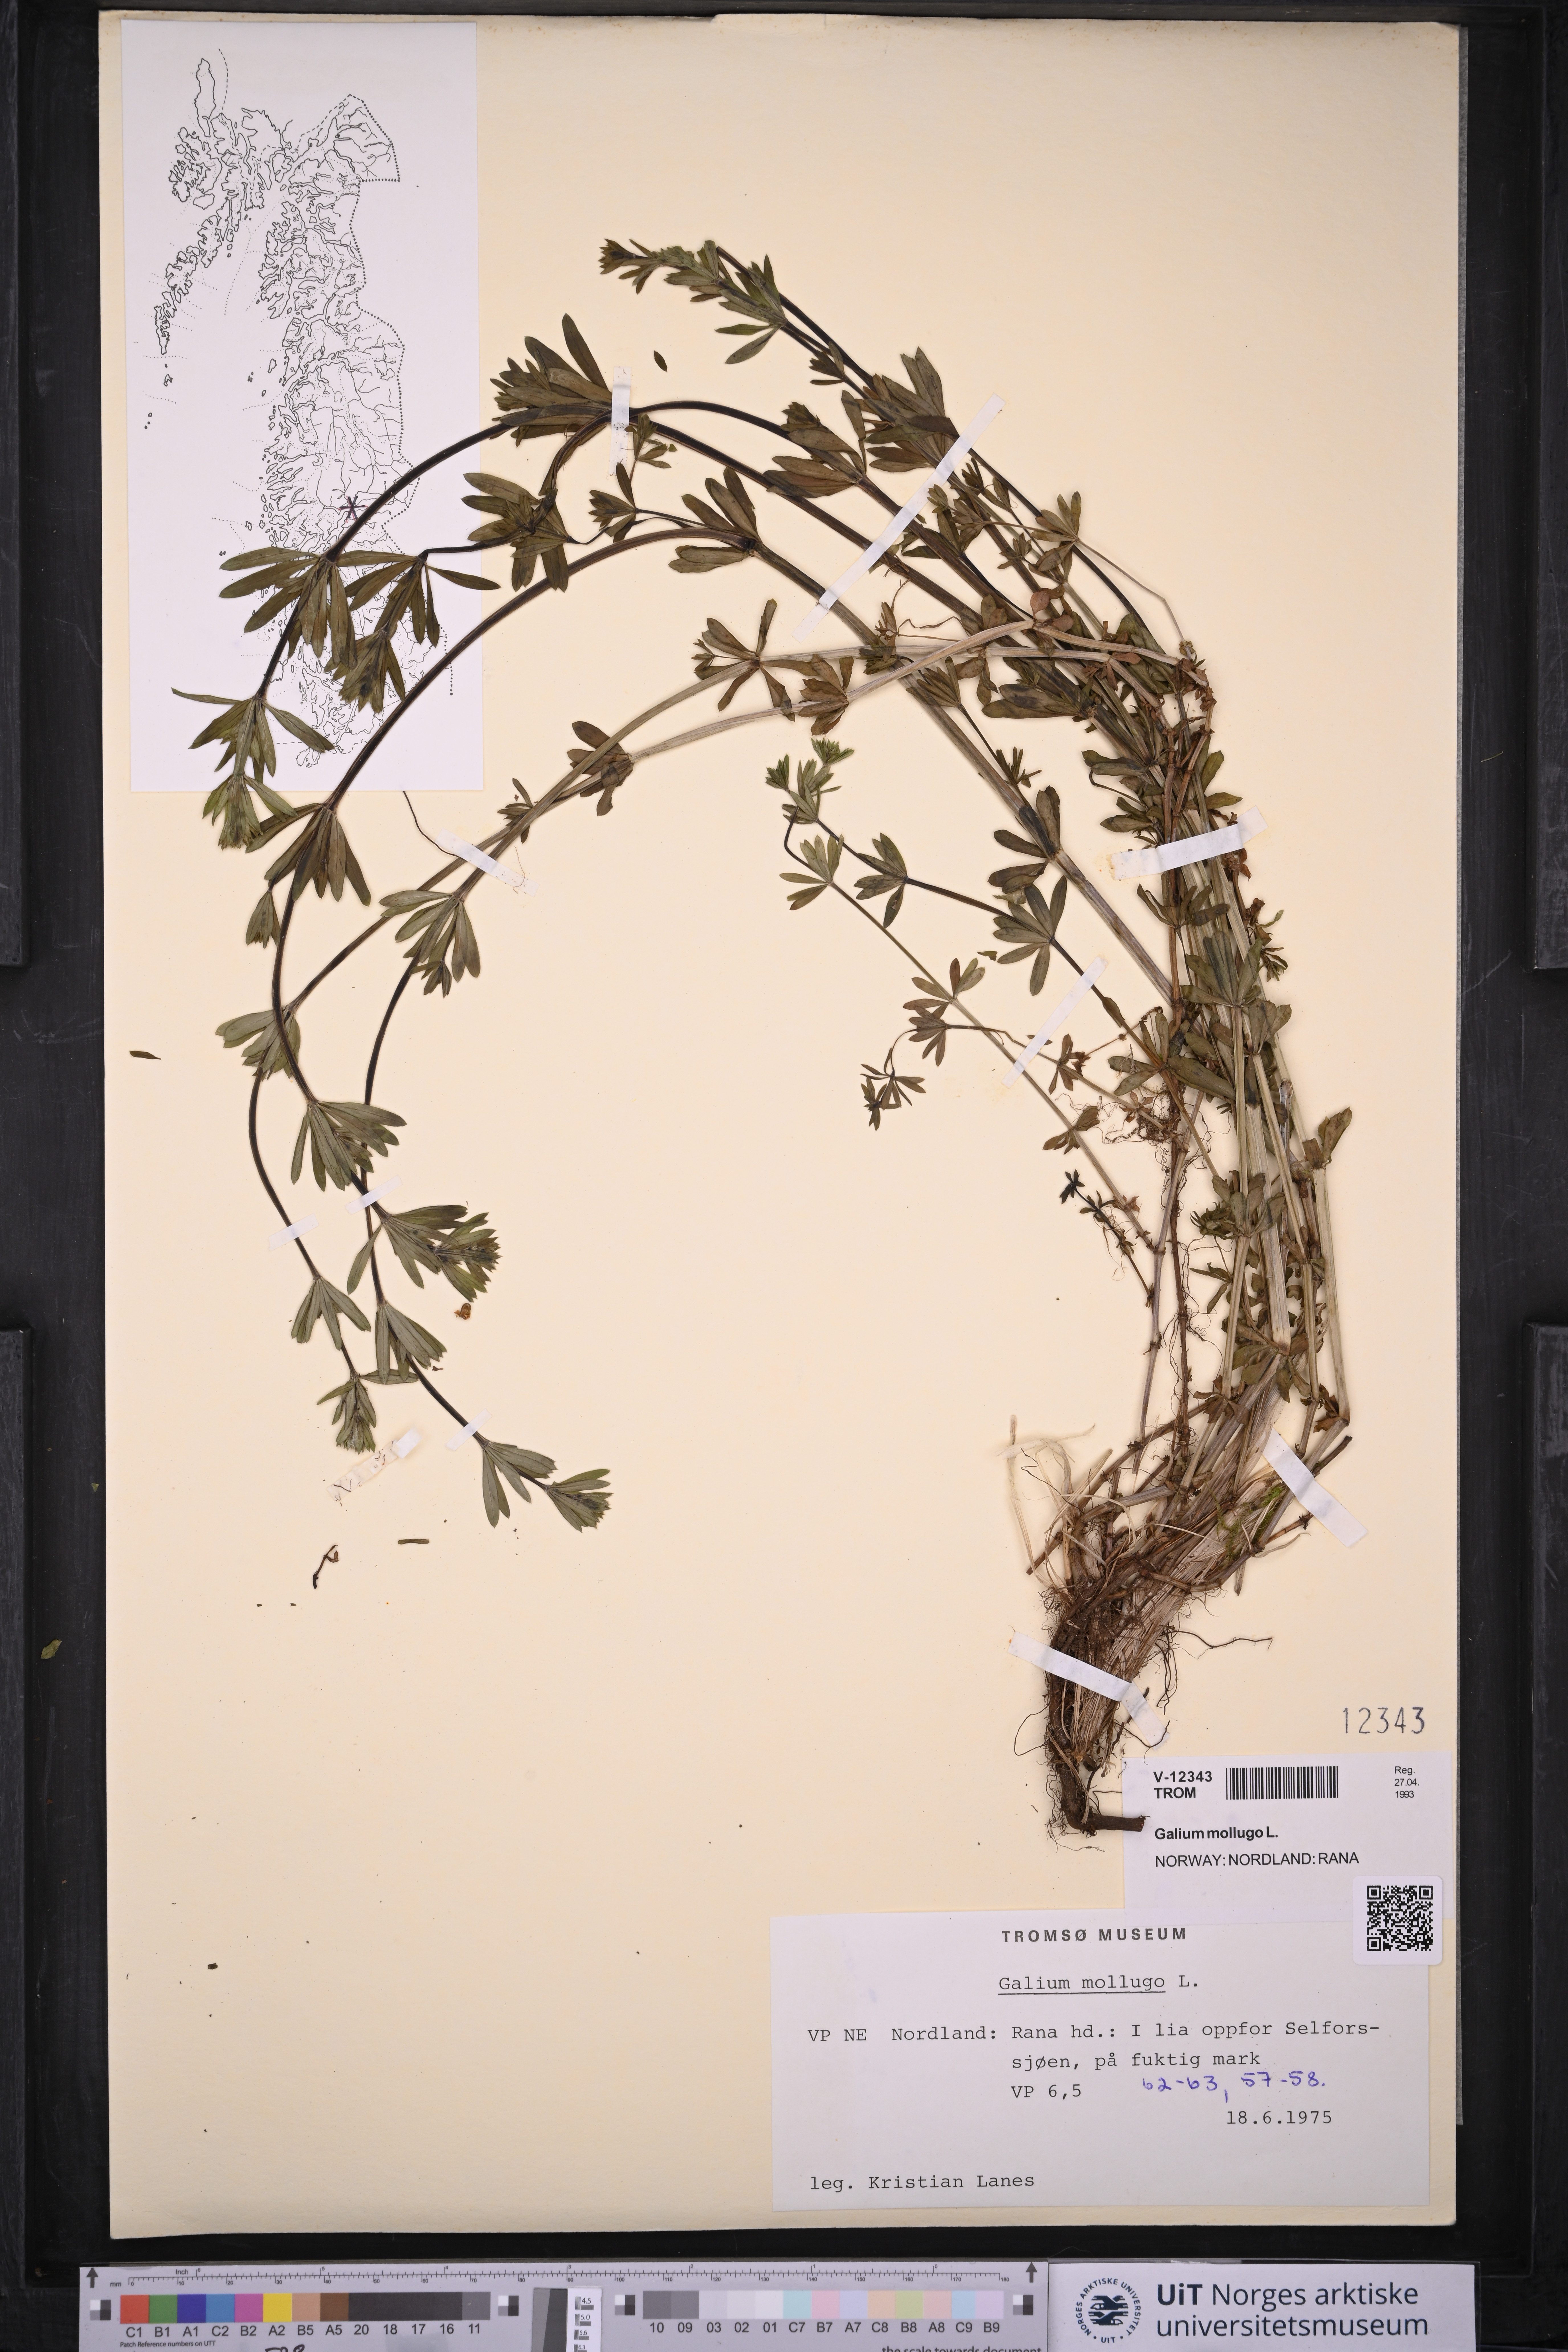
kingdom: Plantae
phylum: Tracheophyta
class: Magnoliopsida
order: Gentianales
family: Rubiaceae
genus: Galium
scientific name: Galium mollugo
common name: Hedge bedstraw
